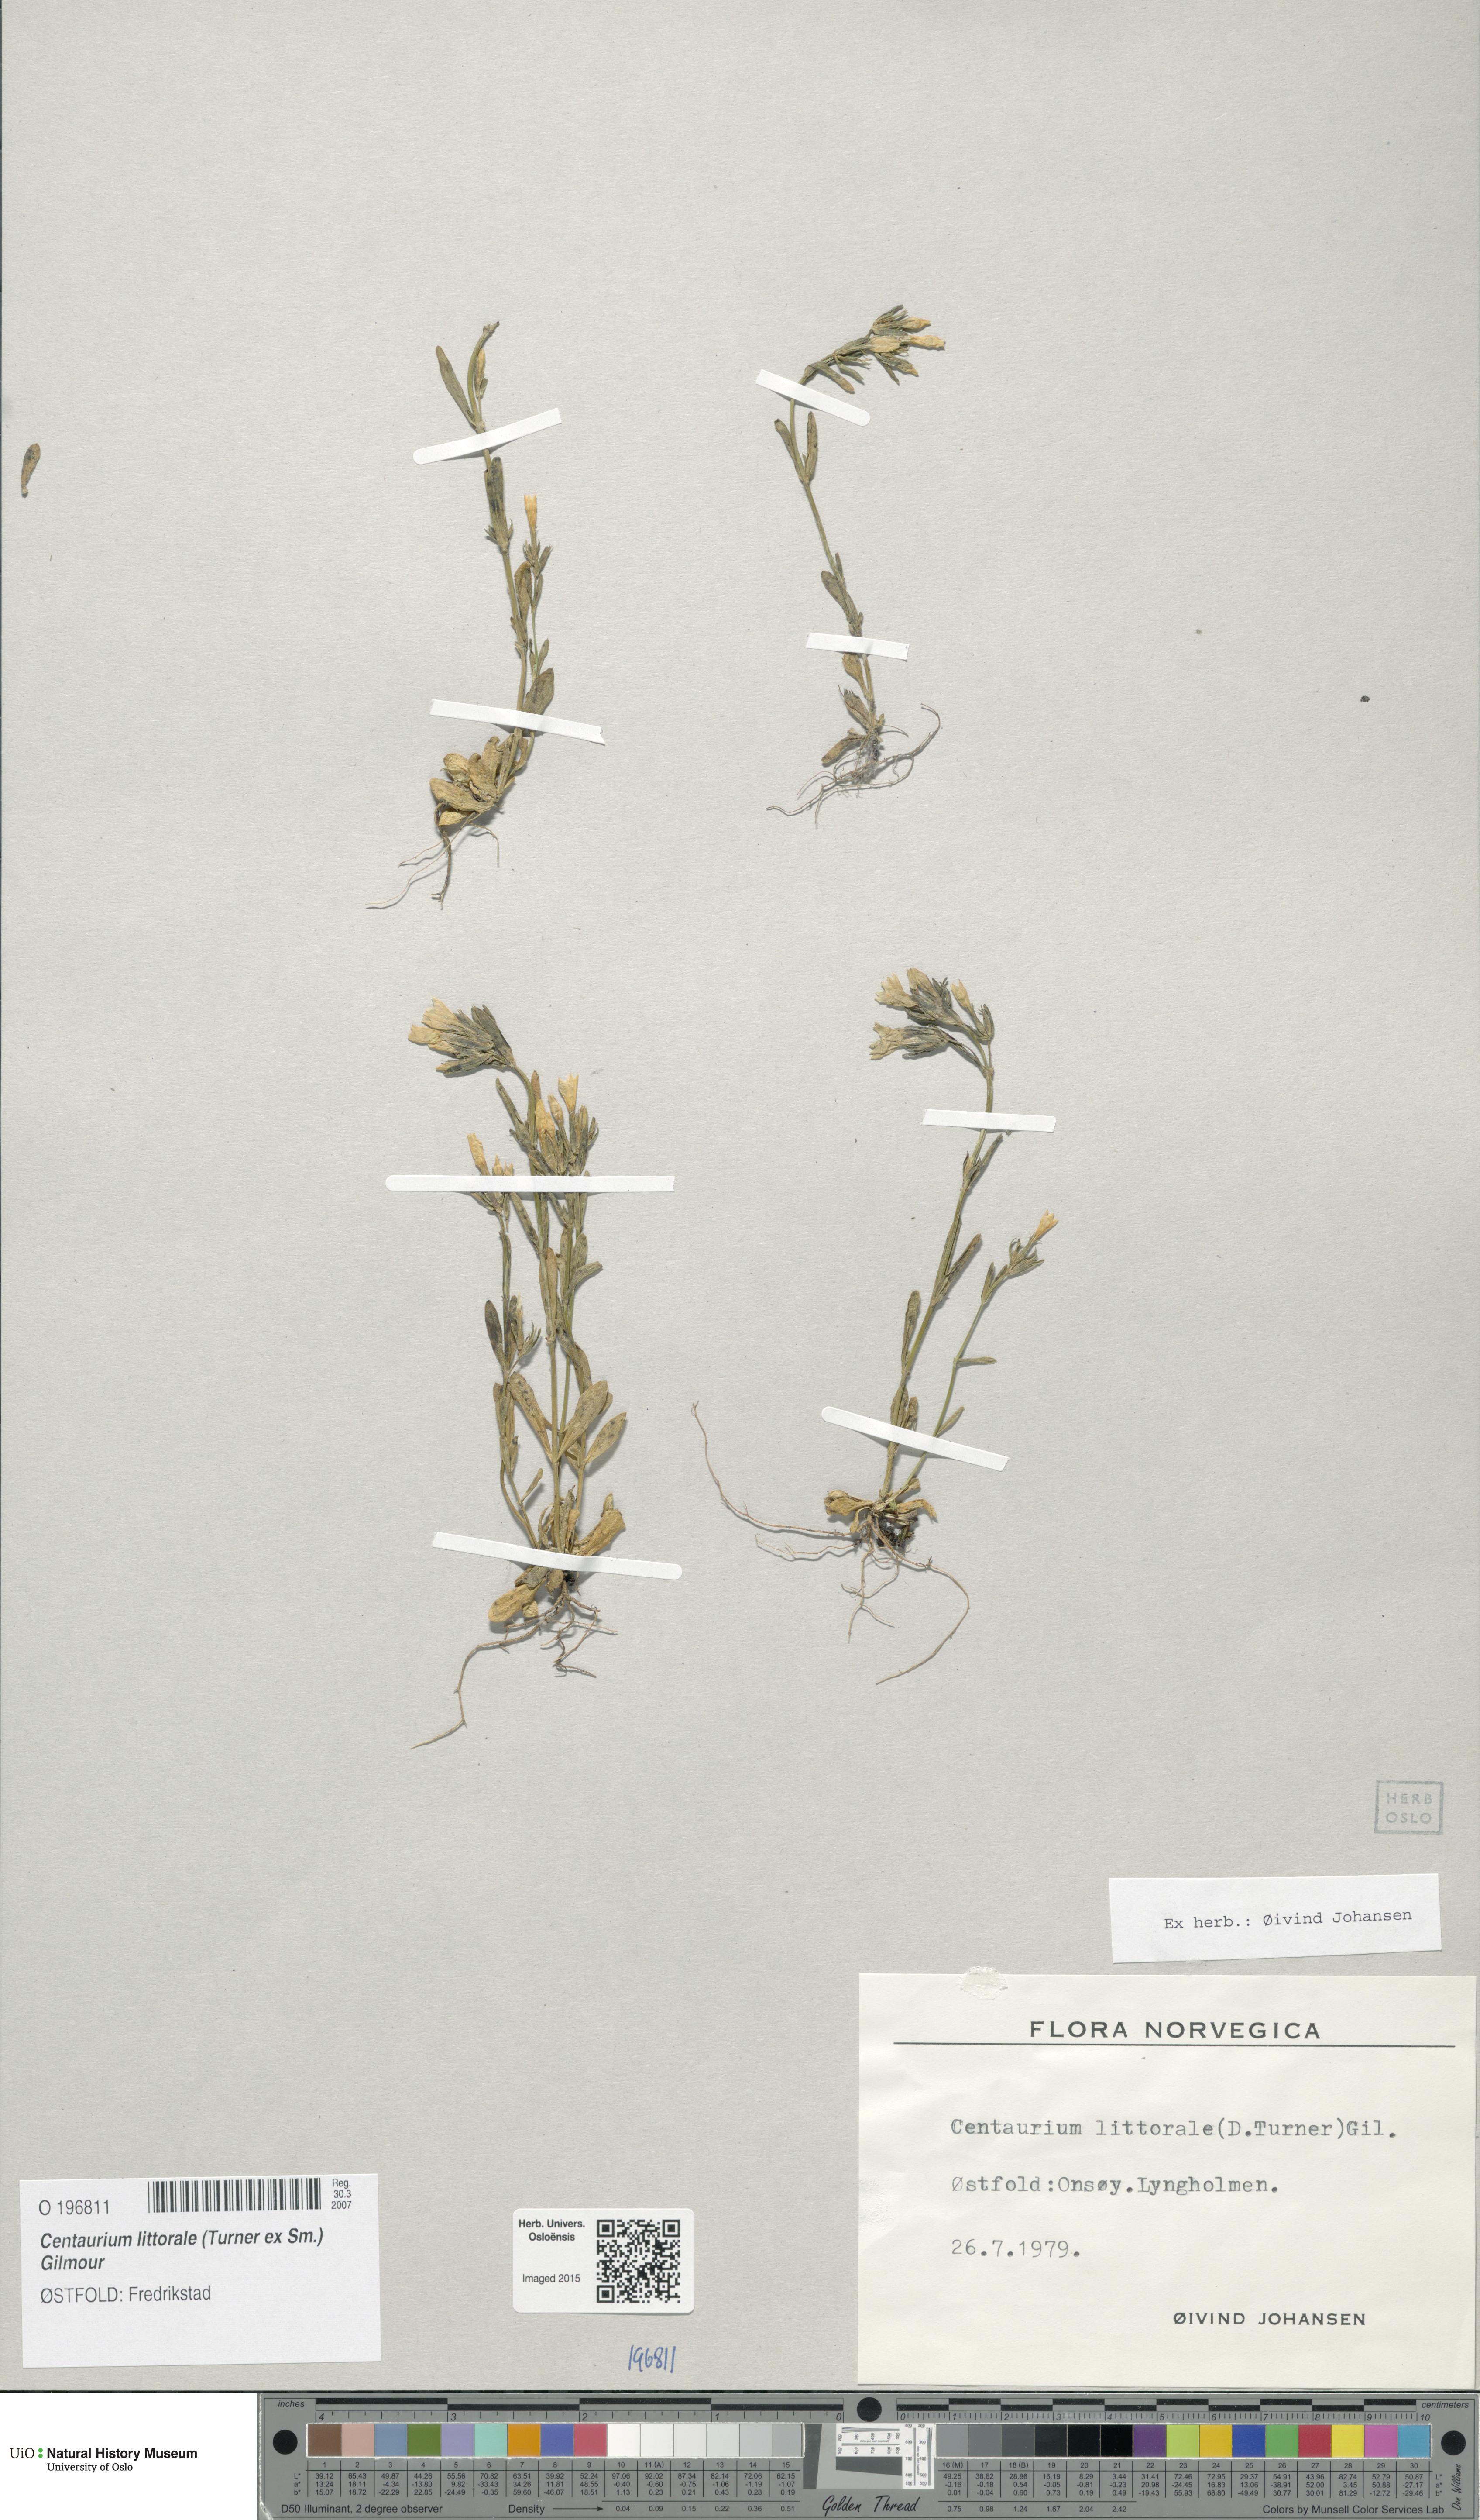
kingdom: Plantae
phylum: Tracheophyta
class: Magnoliopsida
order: Gentianales
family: Gentianaceae
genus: Centaurium
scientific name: Centaurium littorale
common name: Seaside centaury
